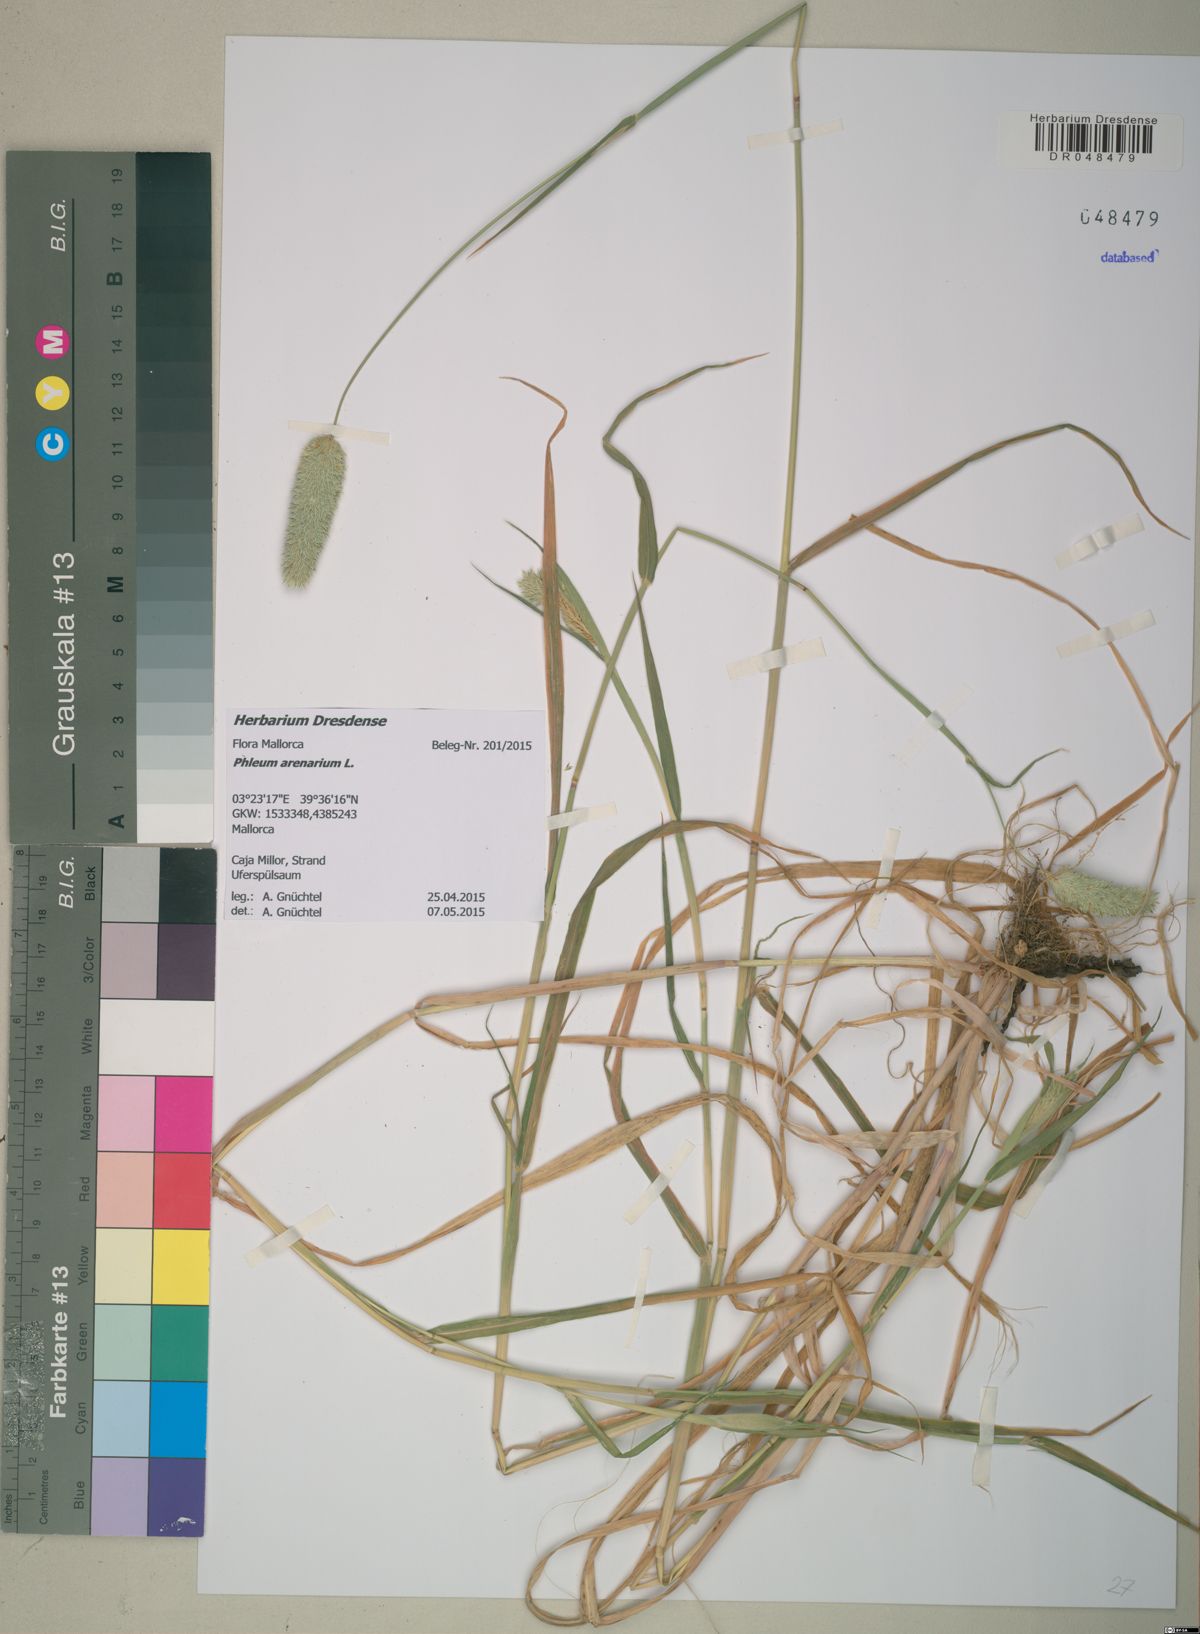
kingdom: Plantae
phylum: Tracheophyta
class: Liliopsida
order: Poales
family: Poaceae
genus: Phleum
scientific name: Phleum arenarium
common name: Sand cat's-tail
